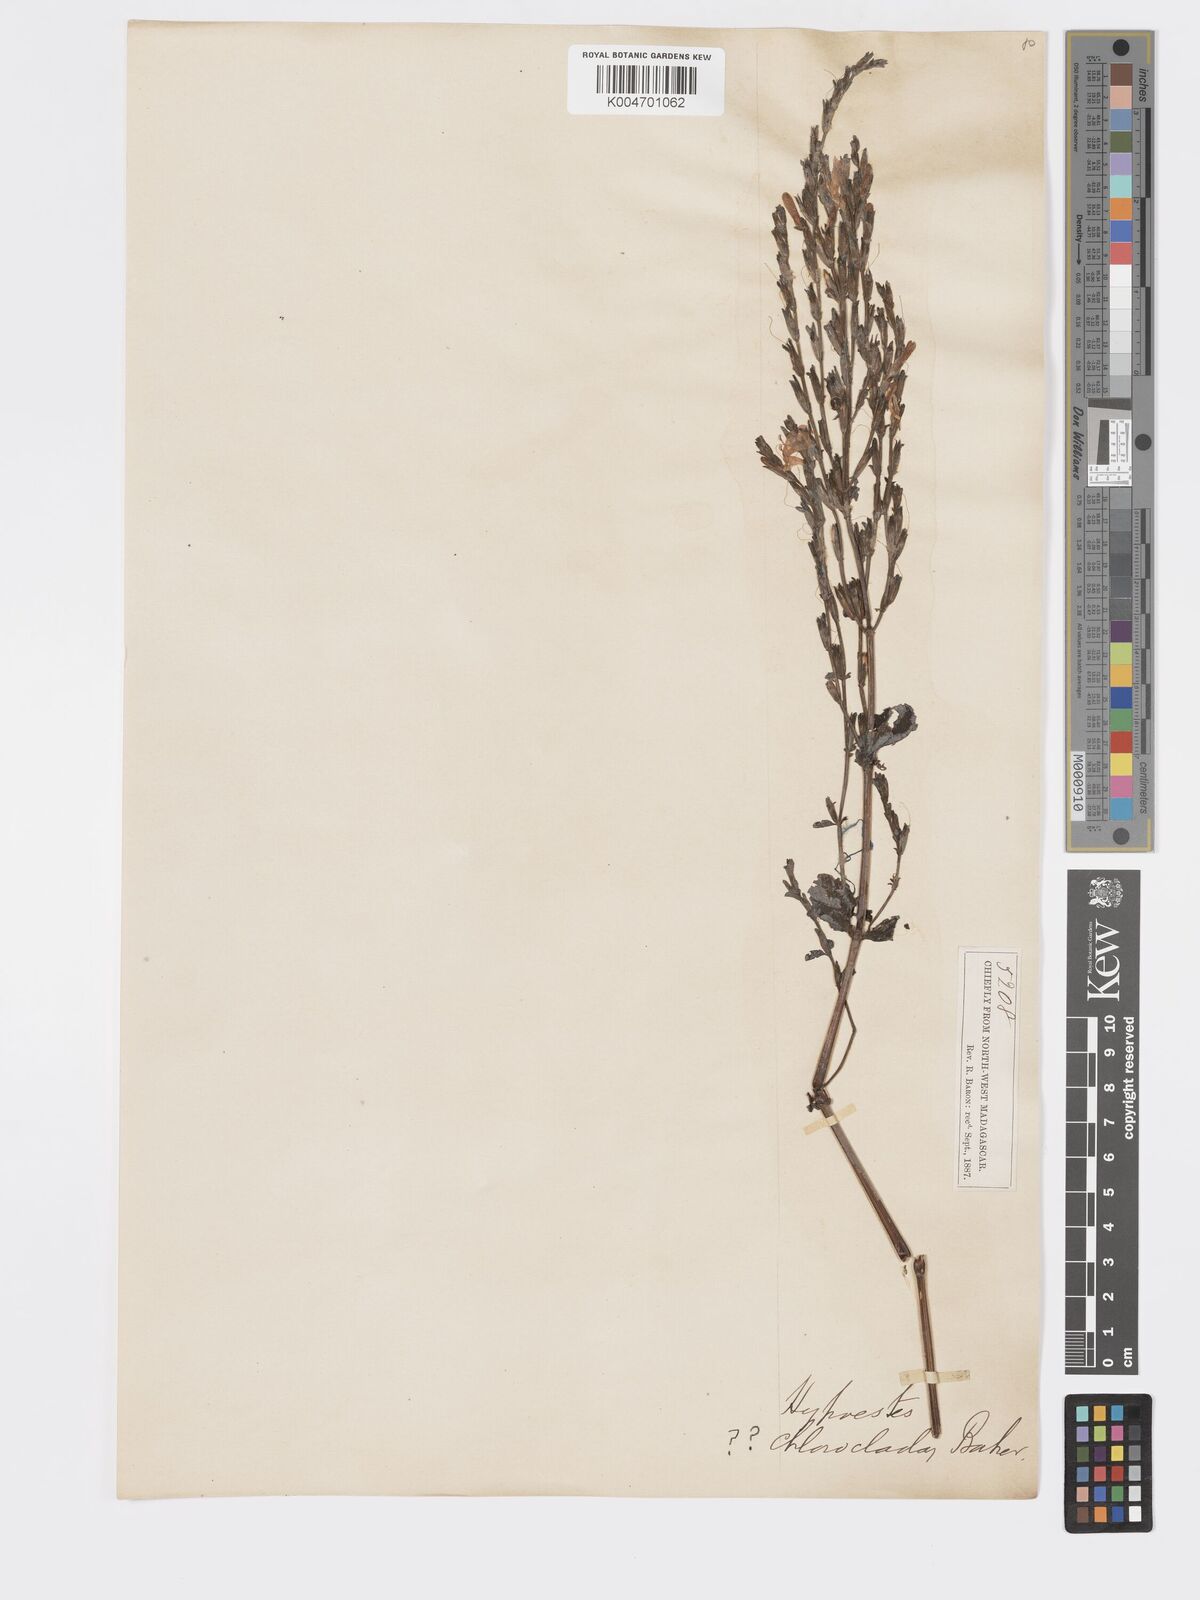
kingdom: Plantae
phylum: Tracheophyta
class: Magnoliopsida
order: Lamiales
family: Acanthaceae
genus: Hypoestes
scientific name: Hypoestes
